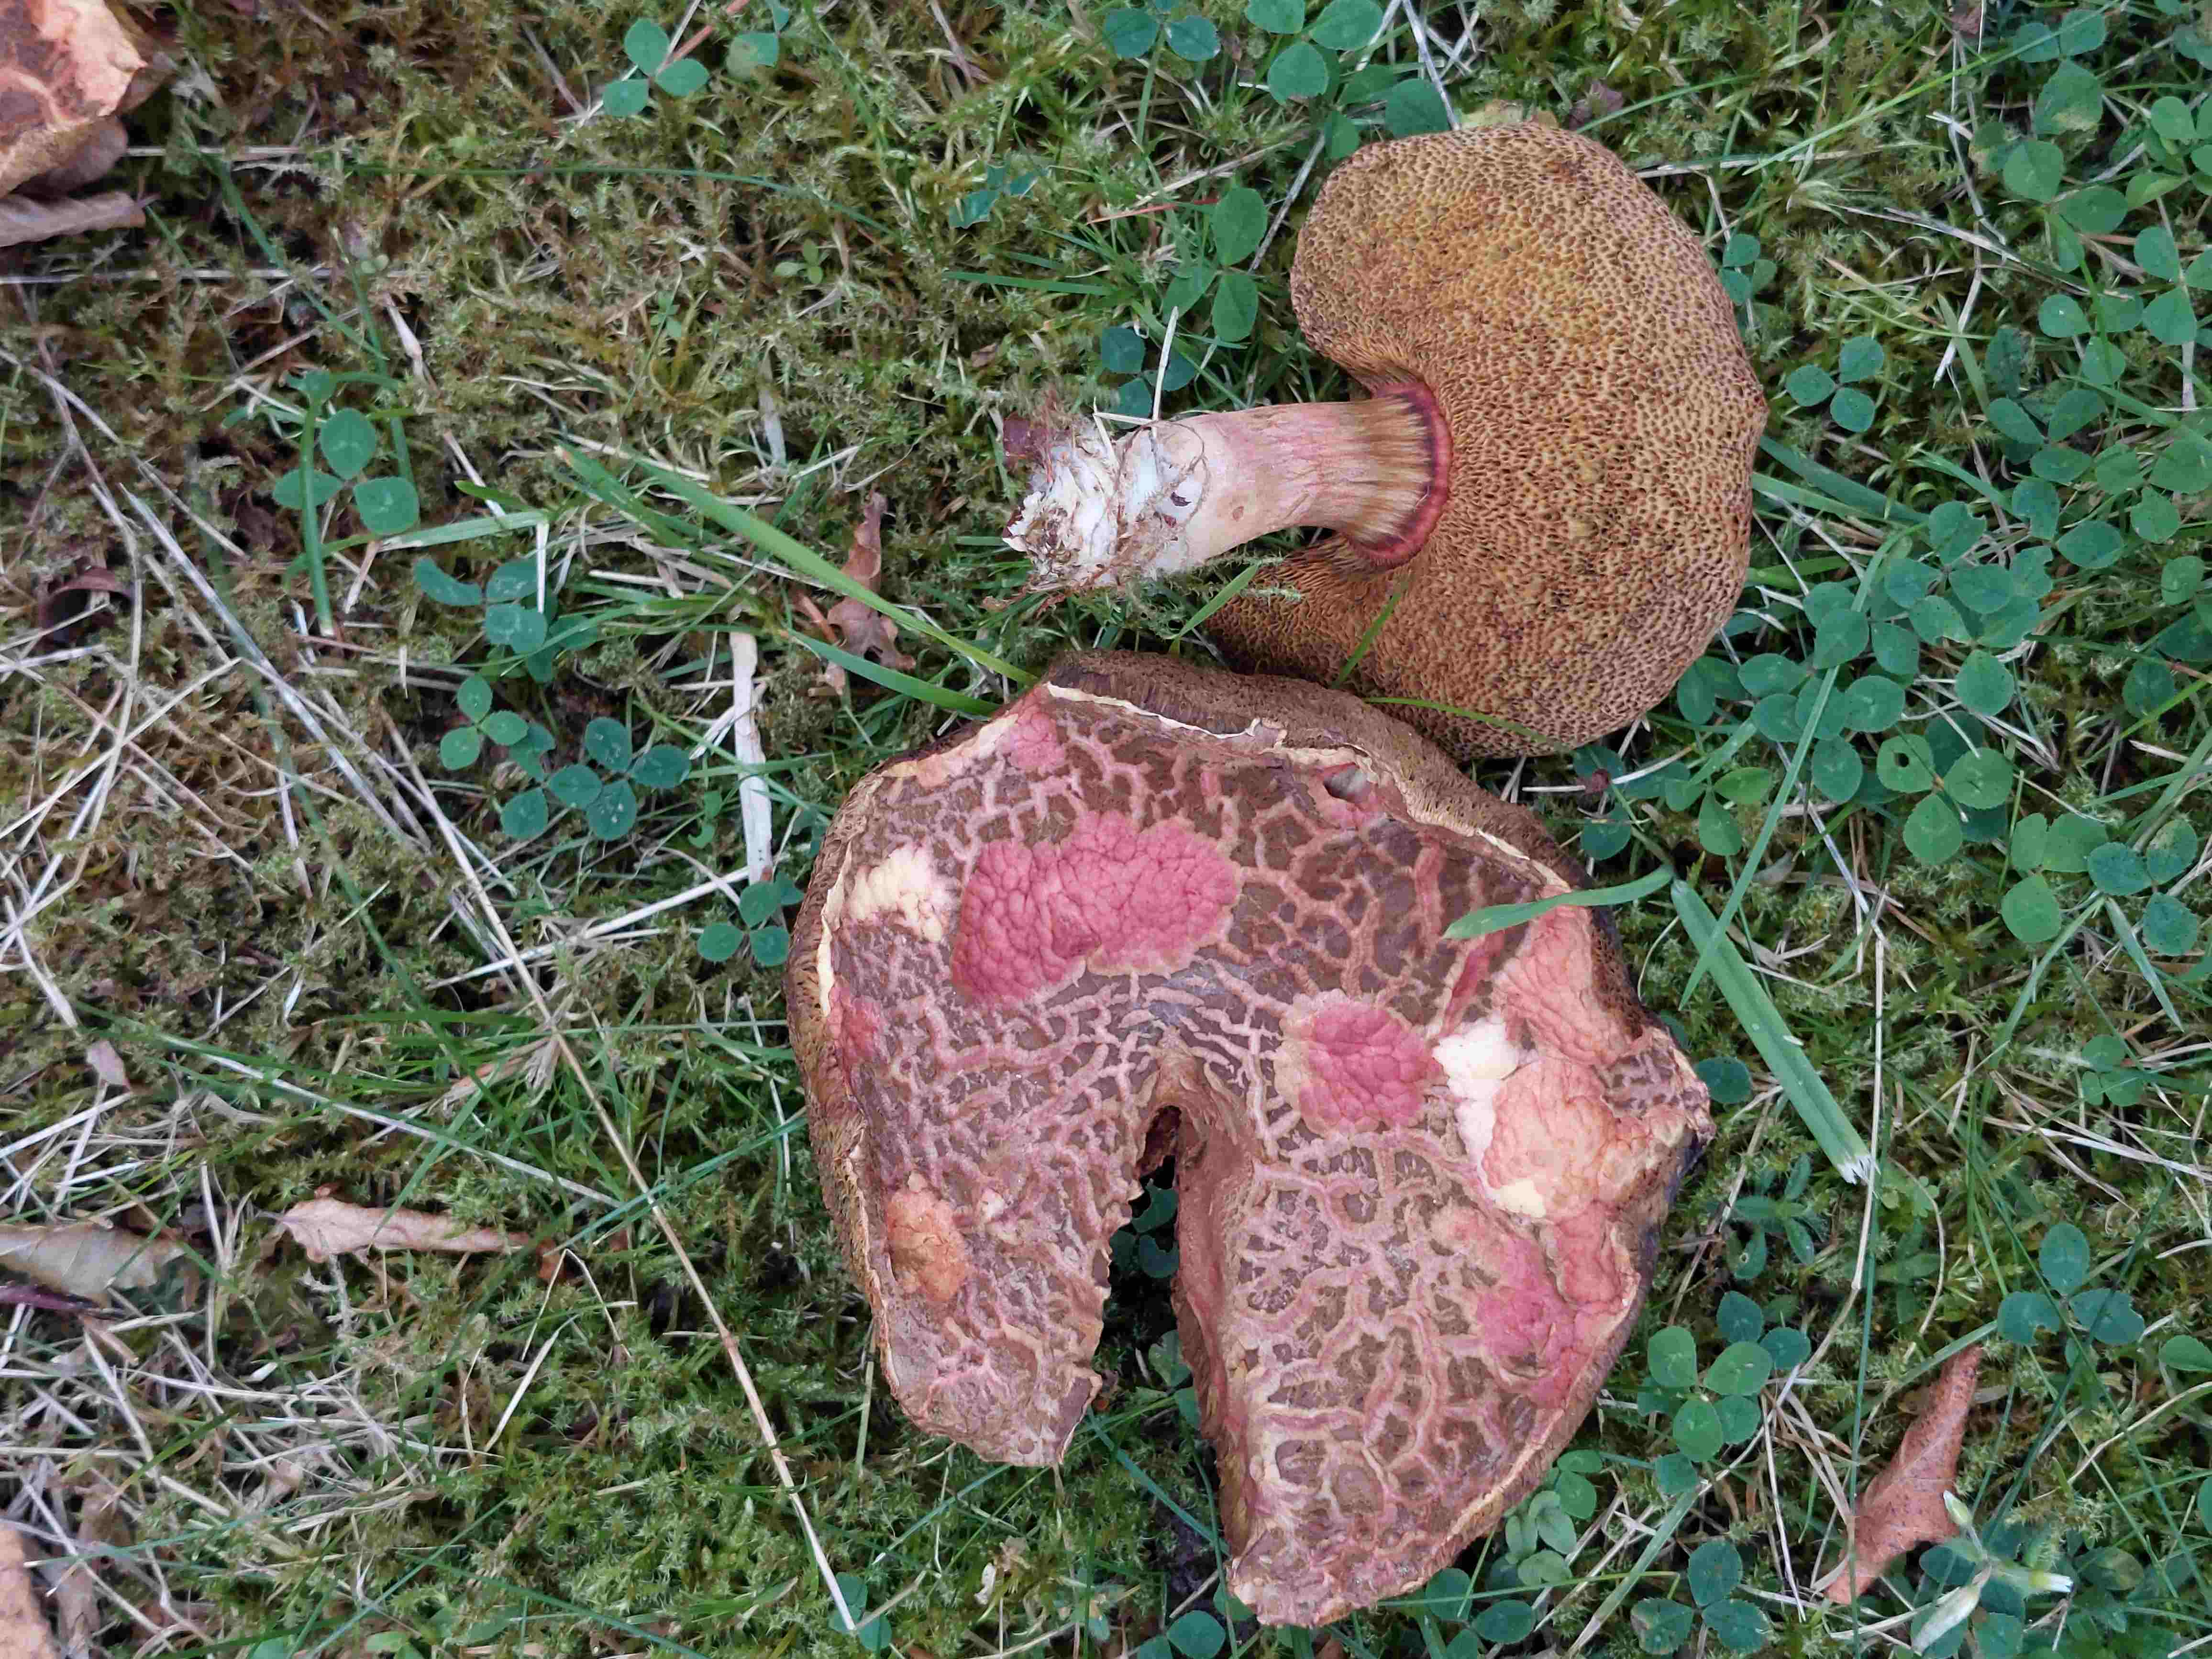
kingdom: Fungi
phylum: Basidiomycota
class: Agaricomycetes
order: Boletales
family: Boletaceae
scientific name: Boletaceae
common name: rørhatfamilien
